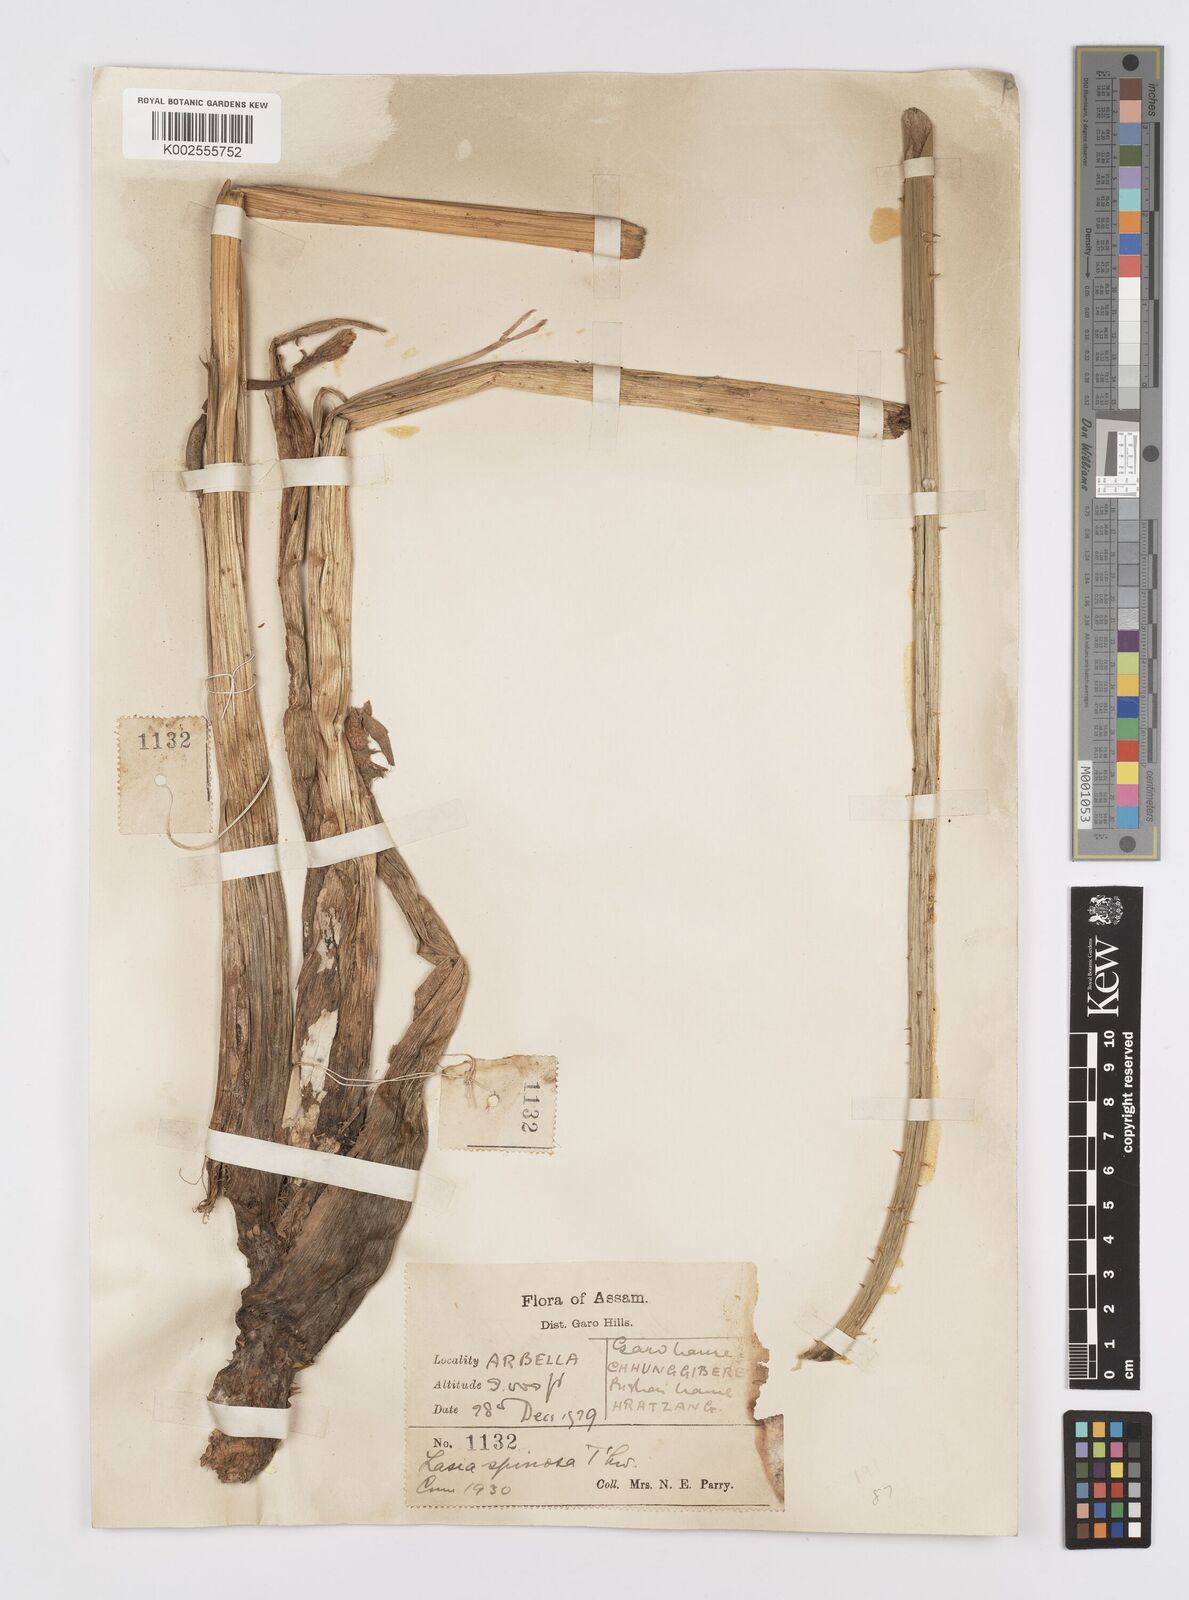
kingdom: Plantae
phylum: Tracheophyta
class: Liliopsida
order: Alismatales
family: Araceae
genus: Lasia
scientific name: Lasia spinosa
